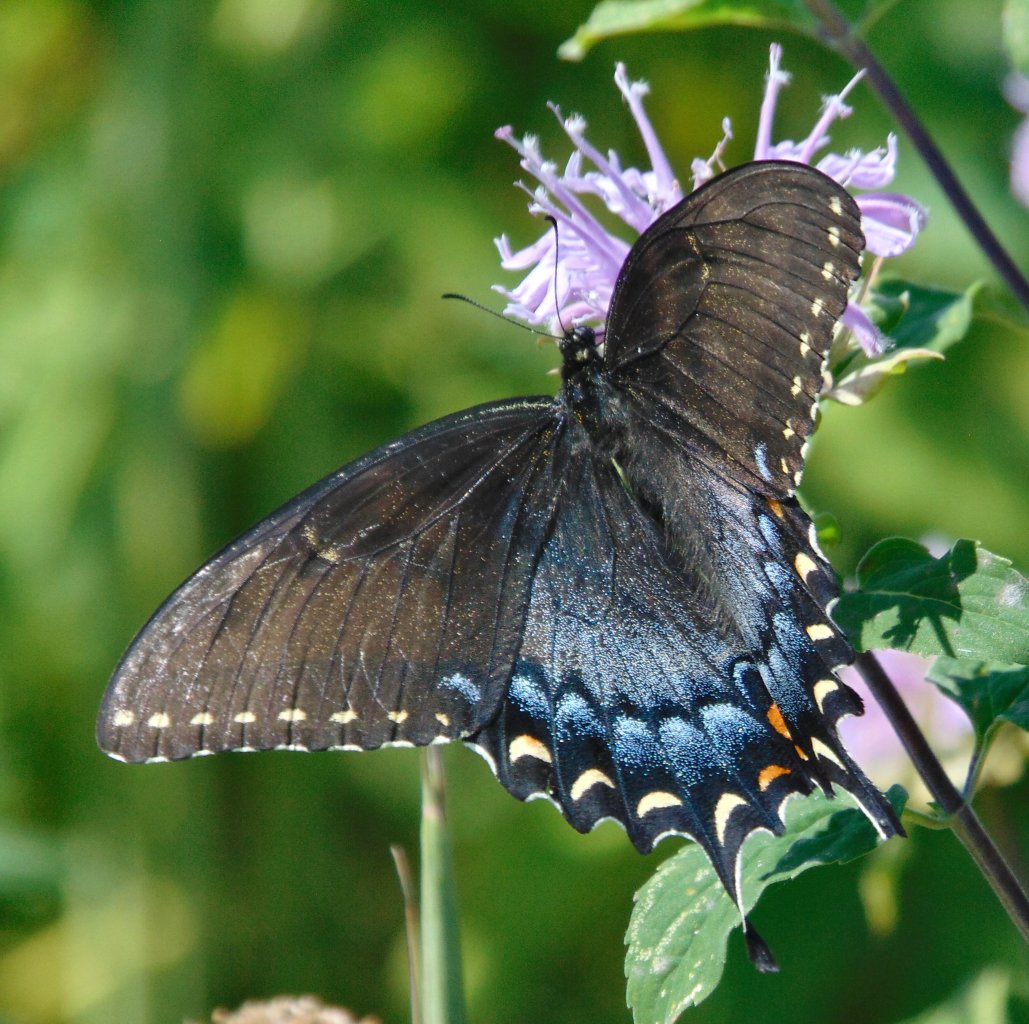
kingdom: Animalia
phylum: Arthropoda
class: Insecta
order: Lepidoptera
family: Papilionidae
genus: Pterourus
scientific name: Pterourus glaucus
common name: Eastern Tiger Swallowtail
